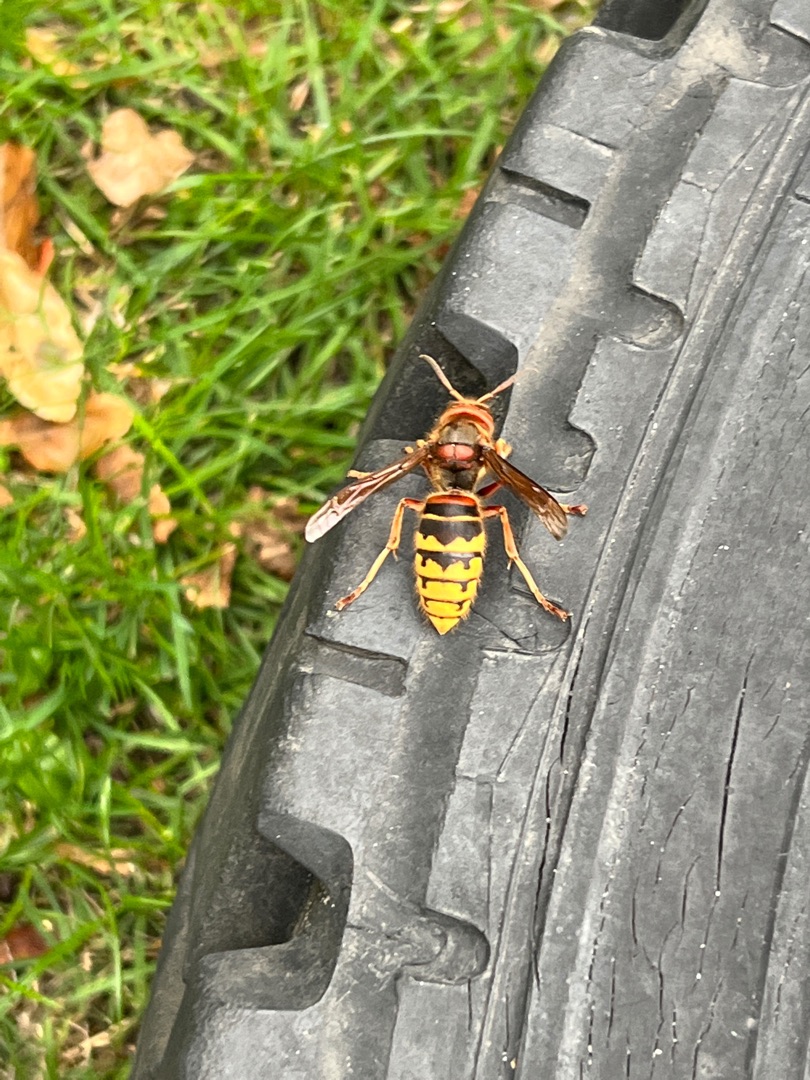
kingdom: Animalia
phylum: Arthropoda
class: Insecta
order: Hymenoptera
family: Vespidae
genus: Vespa
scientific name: Vespa crabro
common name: Stor gedehams
